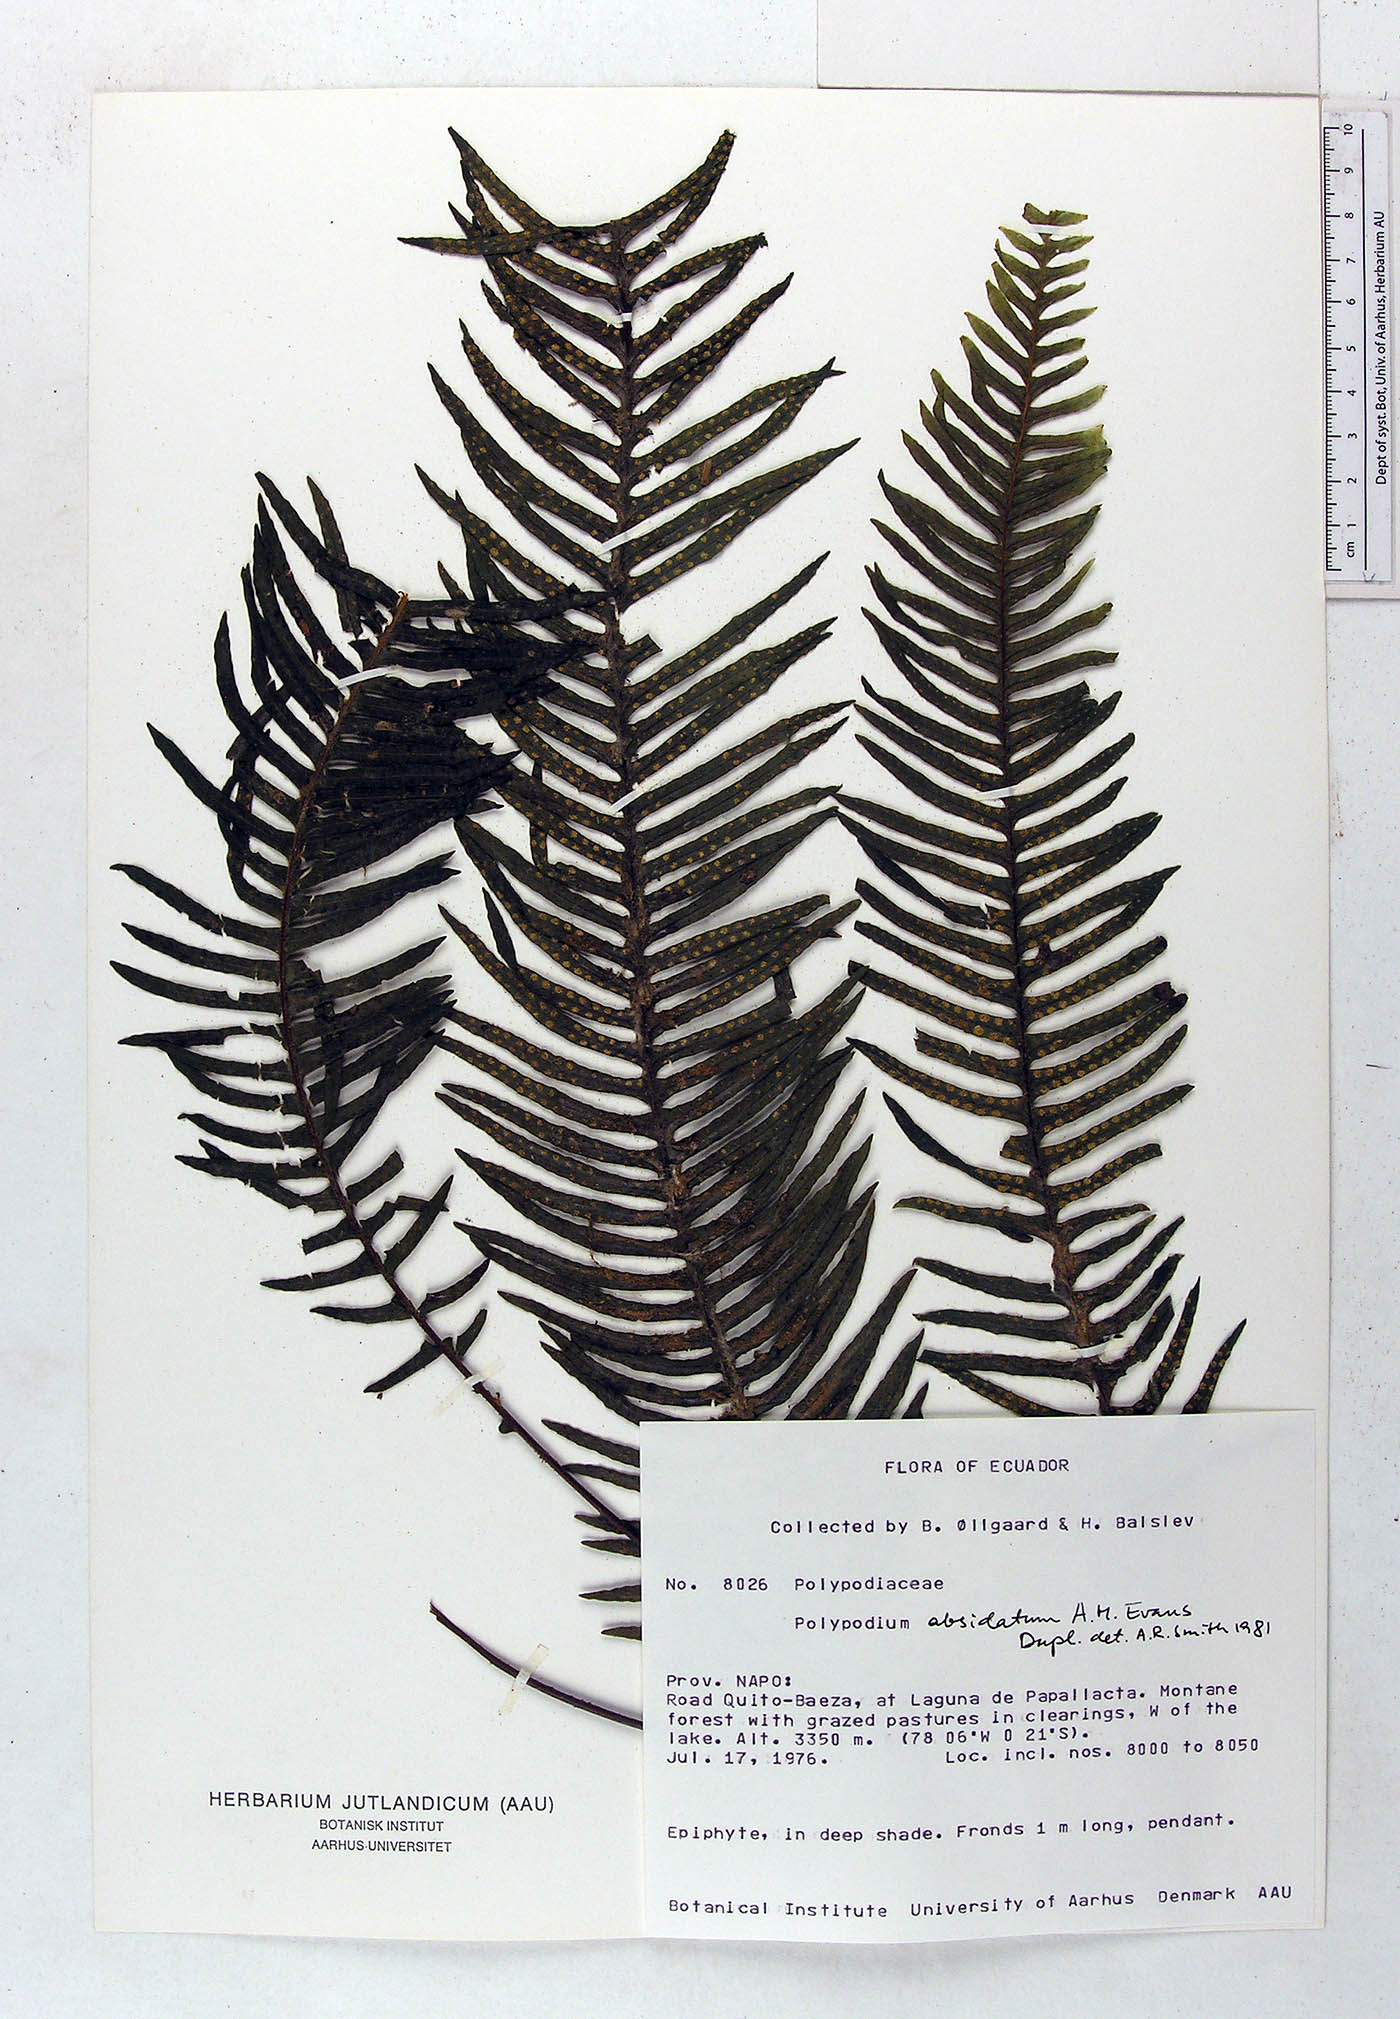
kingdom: Plantae
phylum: Tracheophyta
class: Polypodiopsida
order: Polypodiales
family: Polypodiaceae
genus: Pecluma
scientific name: Pecluma absidata
